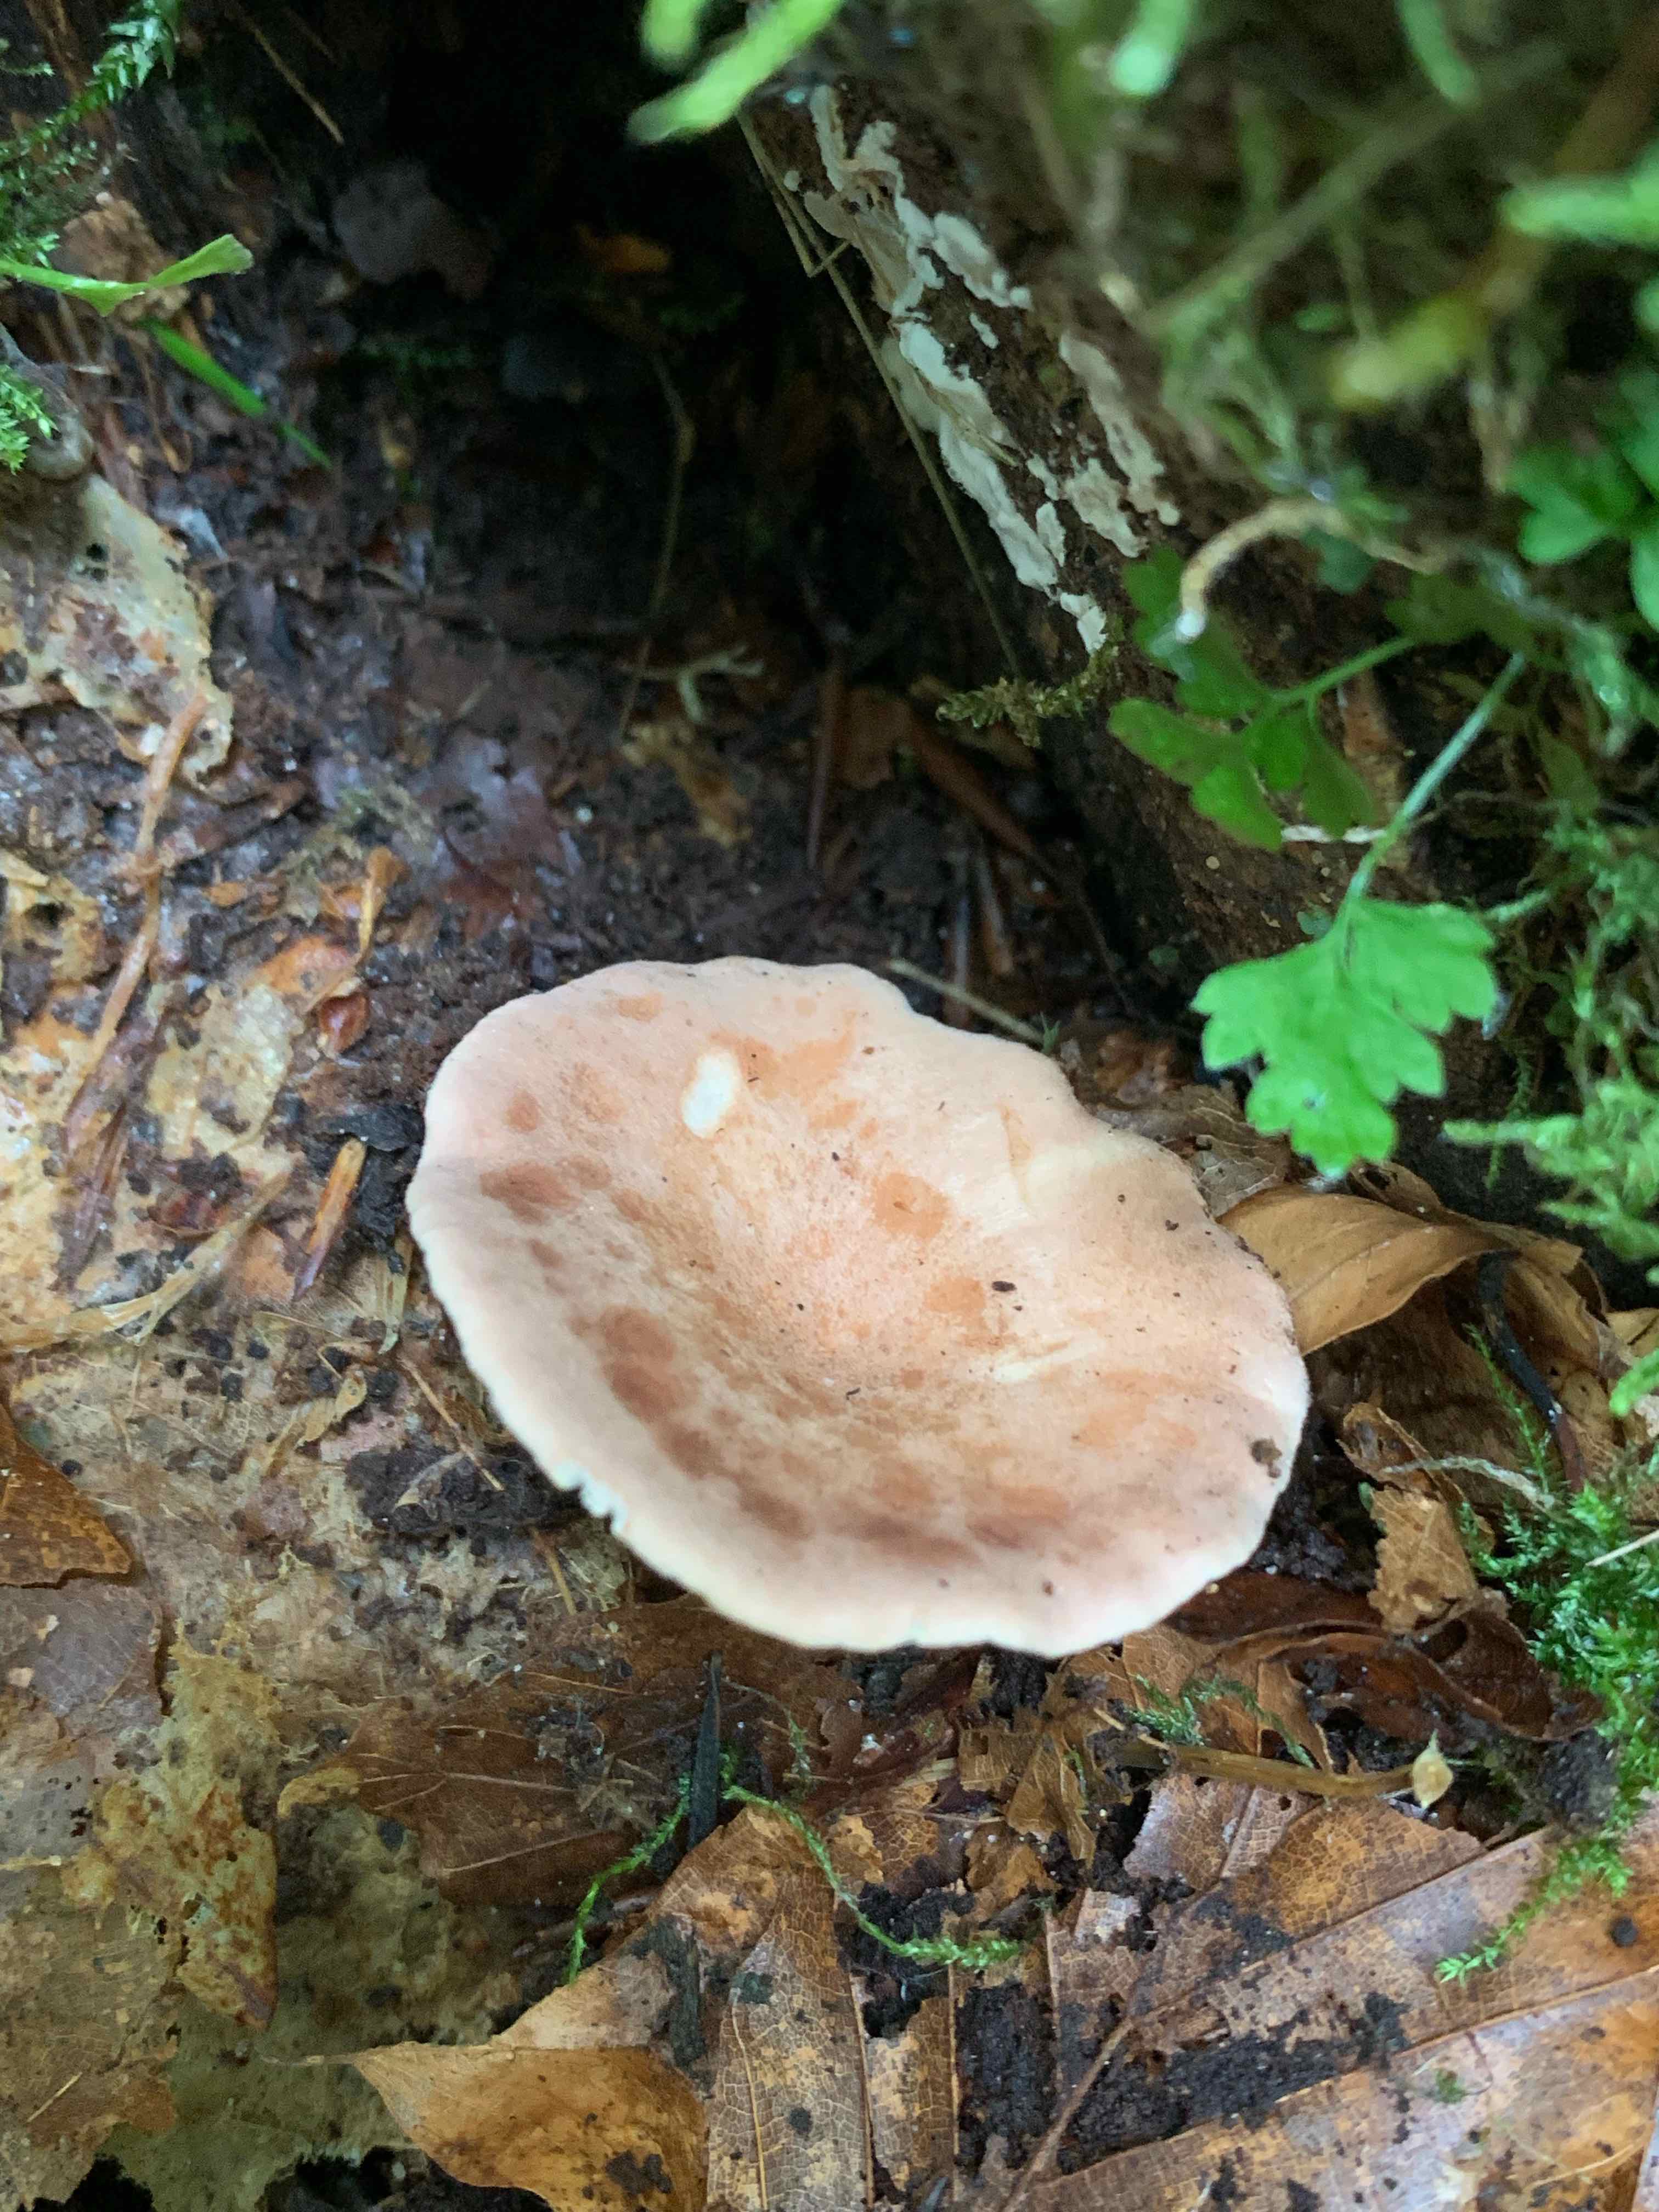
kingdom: Fungi
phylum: Basidiomycota
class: Agaricomycetes
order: Agaricales
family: Tricholomataceae
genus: Infundibulicybe
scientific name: Infundibulicybe gibba
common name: almindelig tragthat
